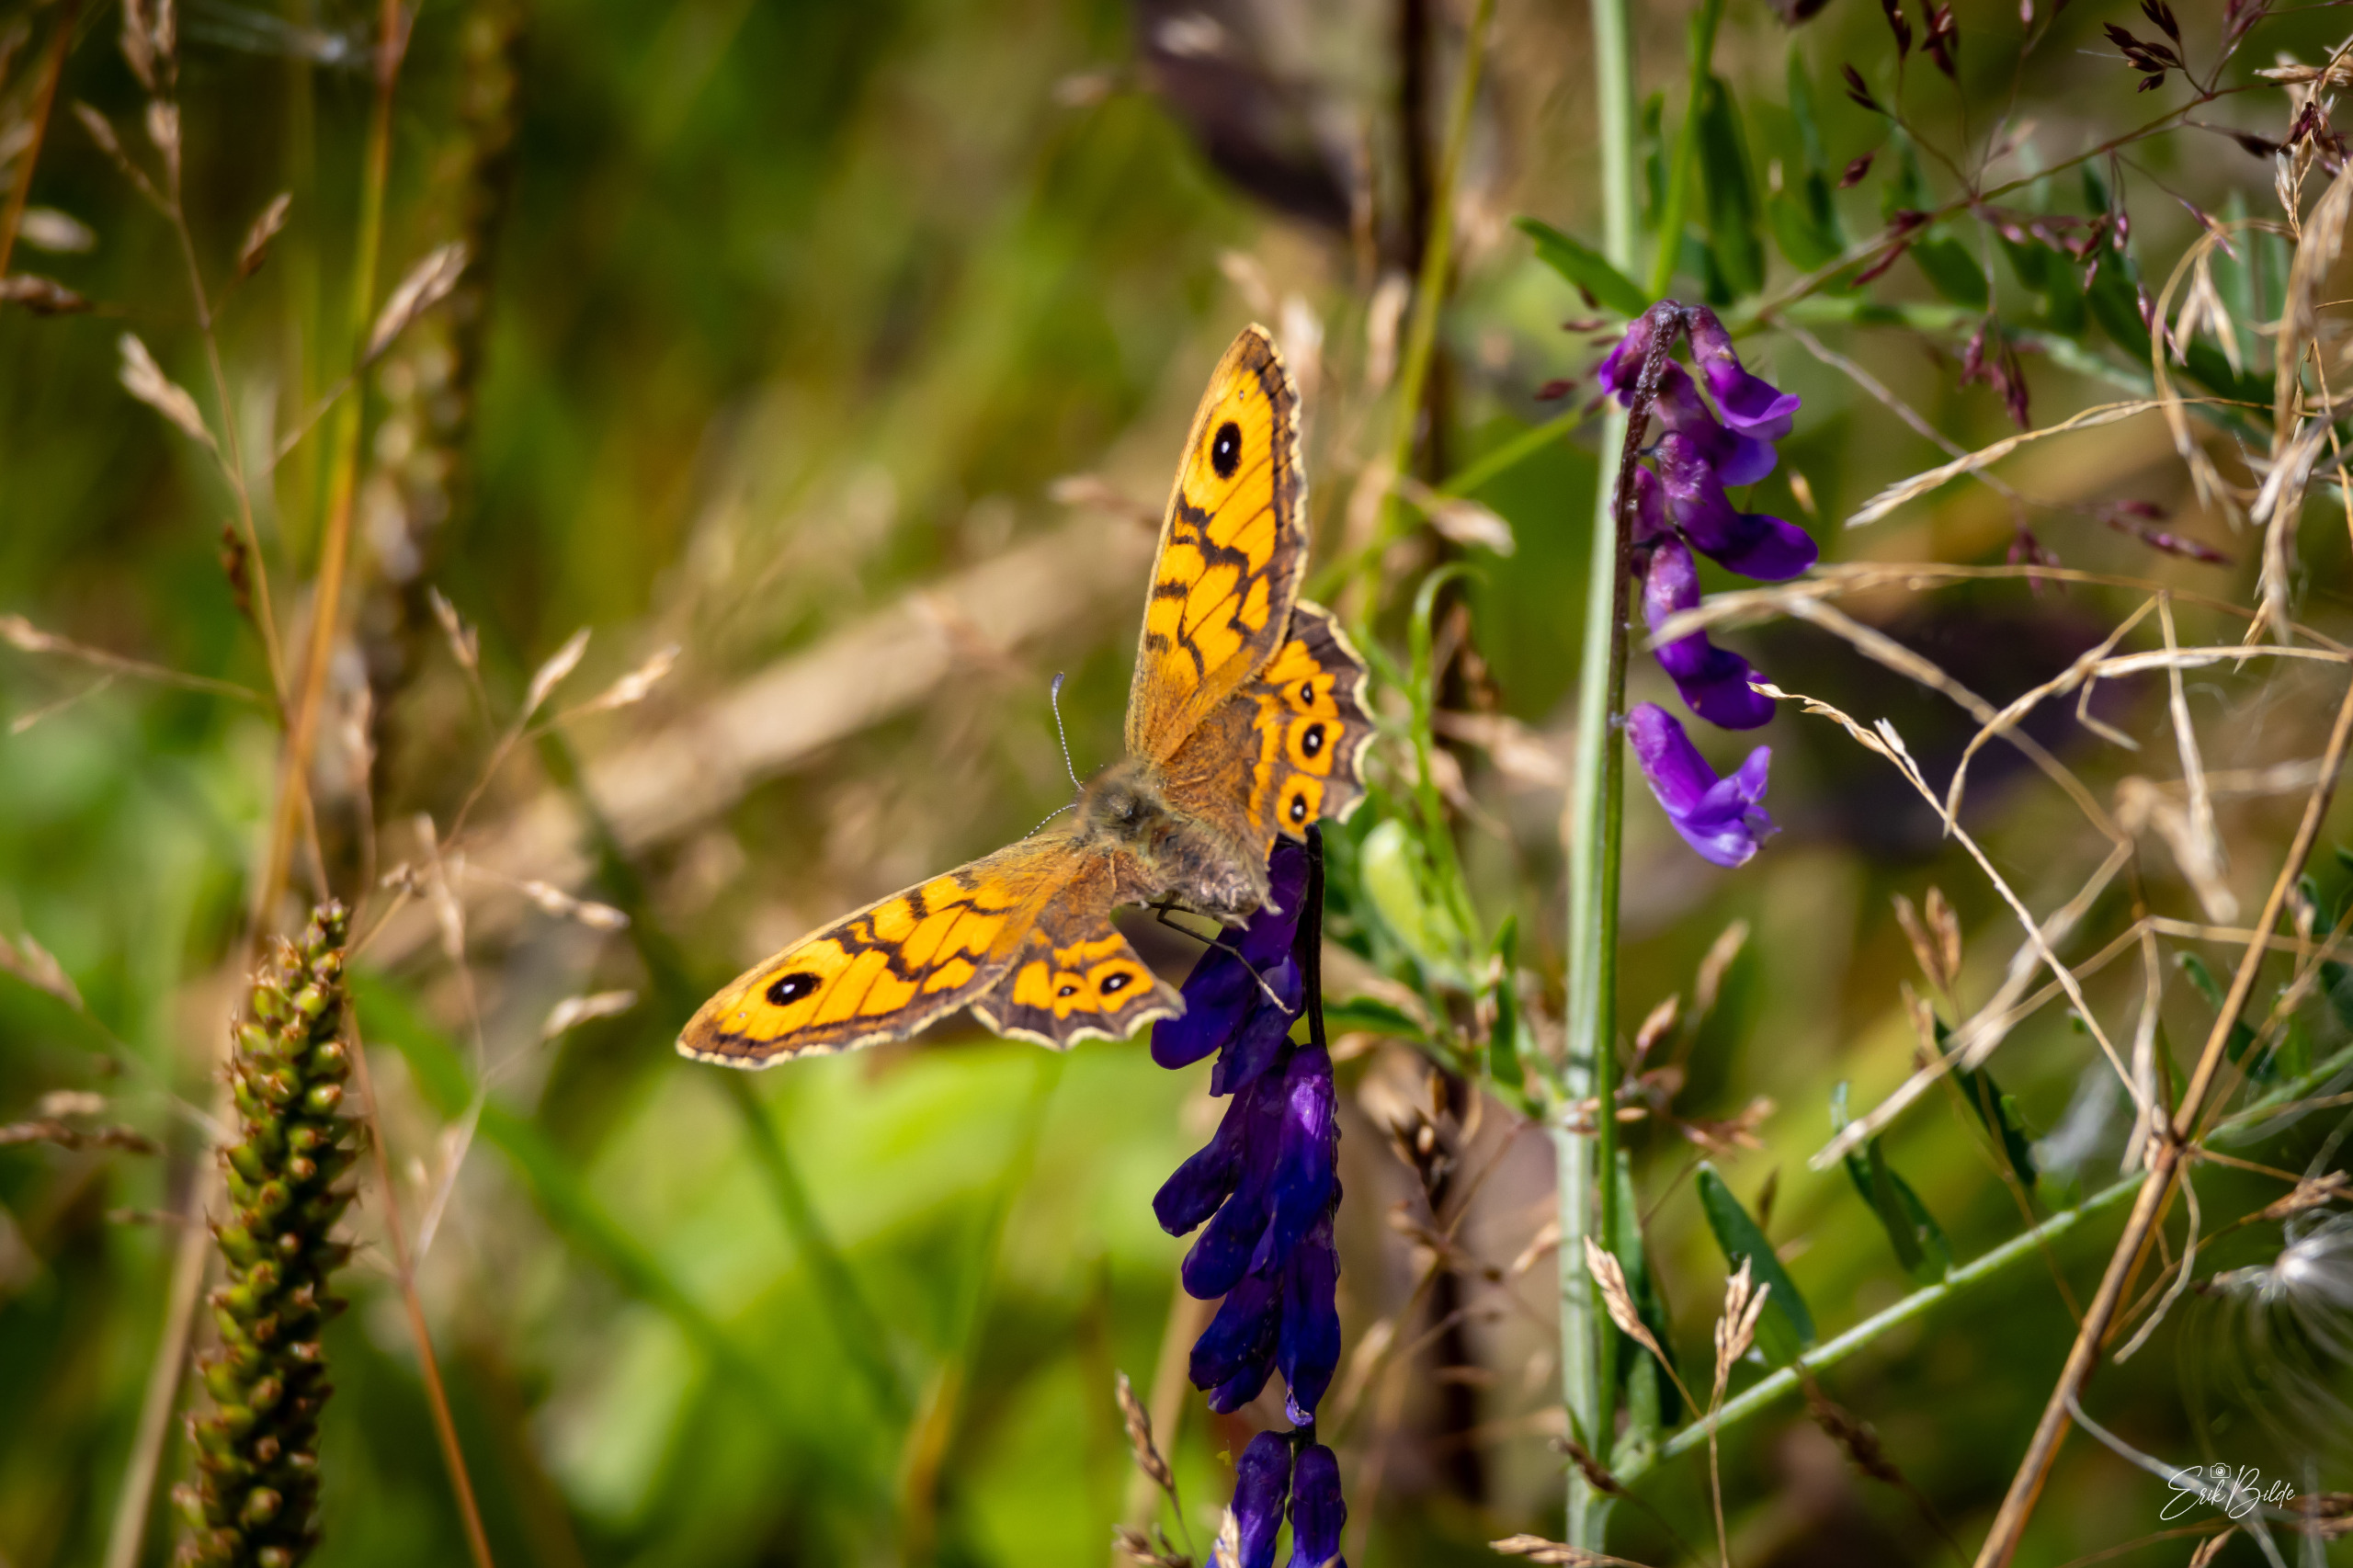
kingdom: Animalia
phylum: Arthropoda
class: Insecta
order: Lepidoptera
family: Nymphalidae
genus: Pararge
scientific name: Pararge Lasiommata megera
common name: Vejrandøje
